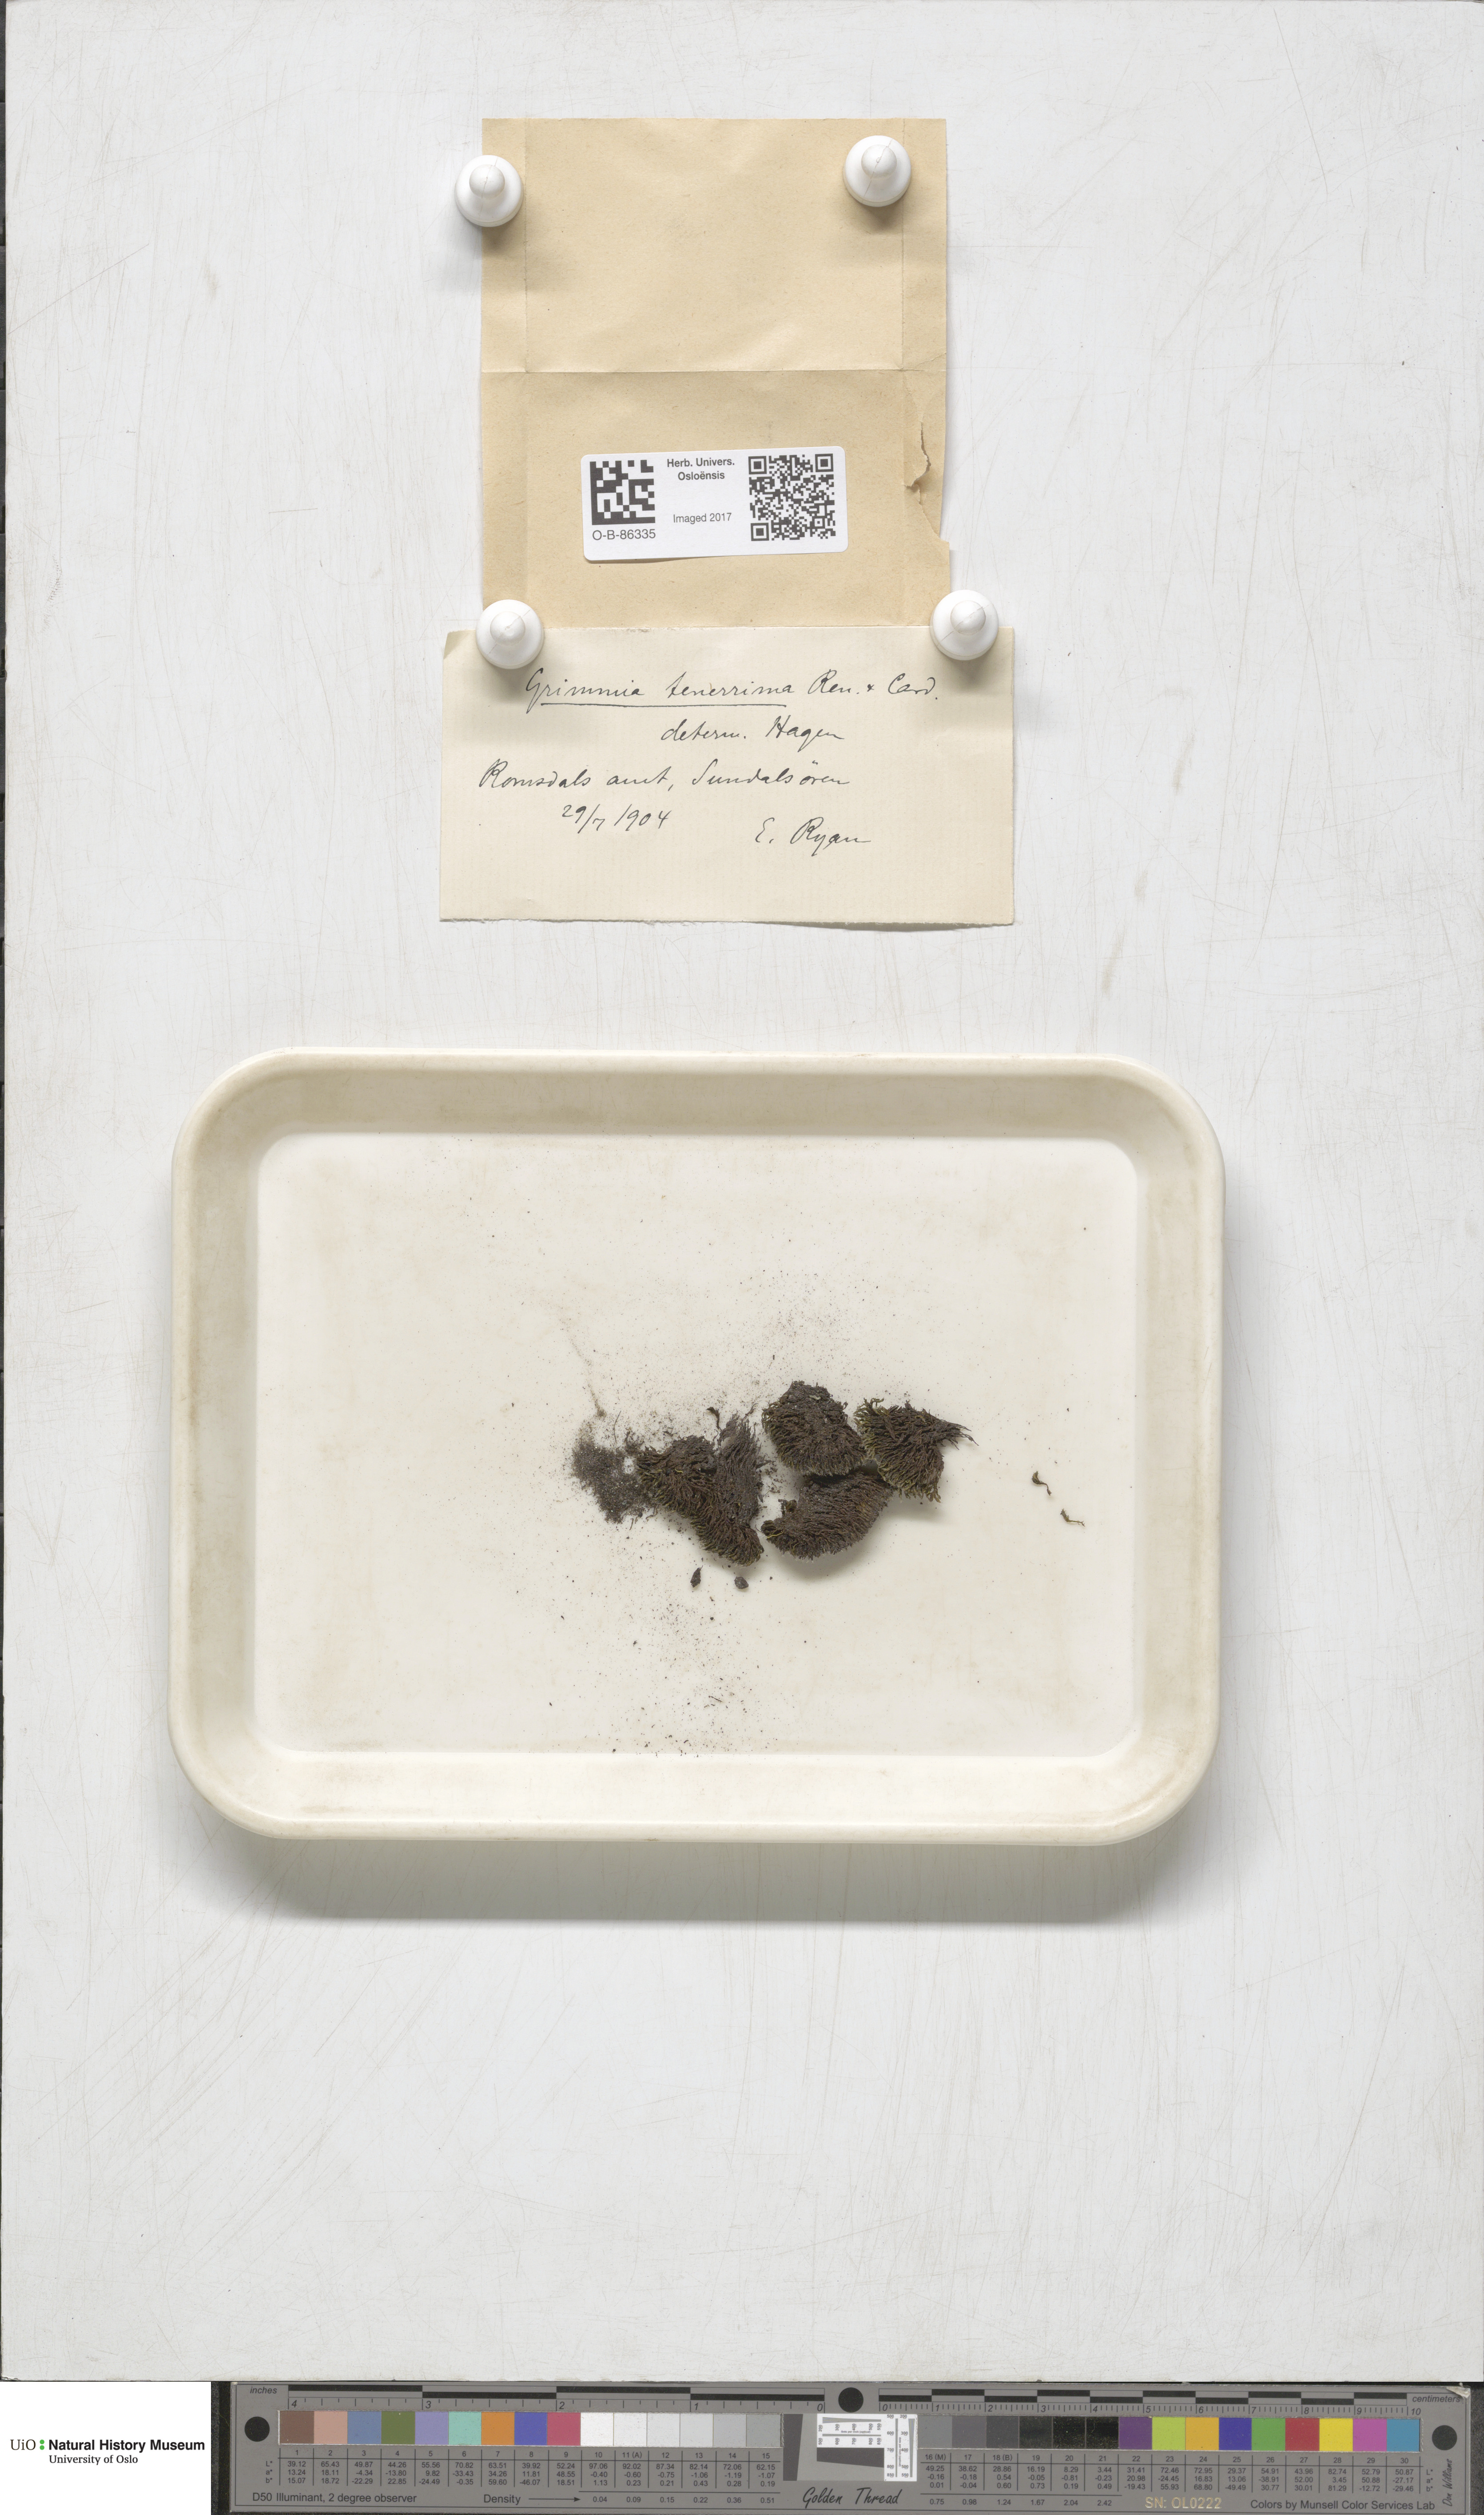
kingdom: Plantae
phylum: Bryophyta
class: Bryopsida
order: Grimmiales
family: Grimmiaceae
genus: Grimmia
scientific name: Grimmia donniana
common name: Donn's grimmia
